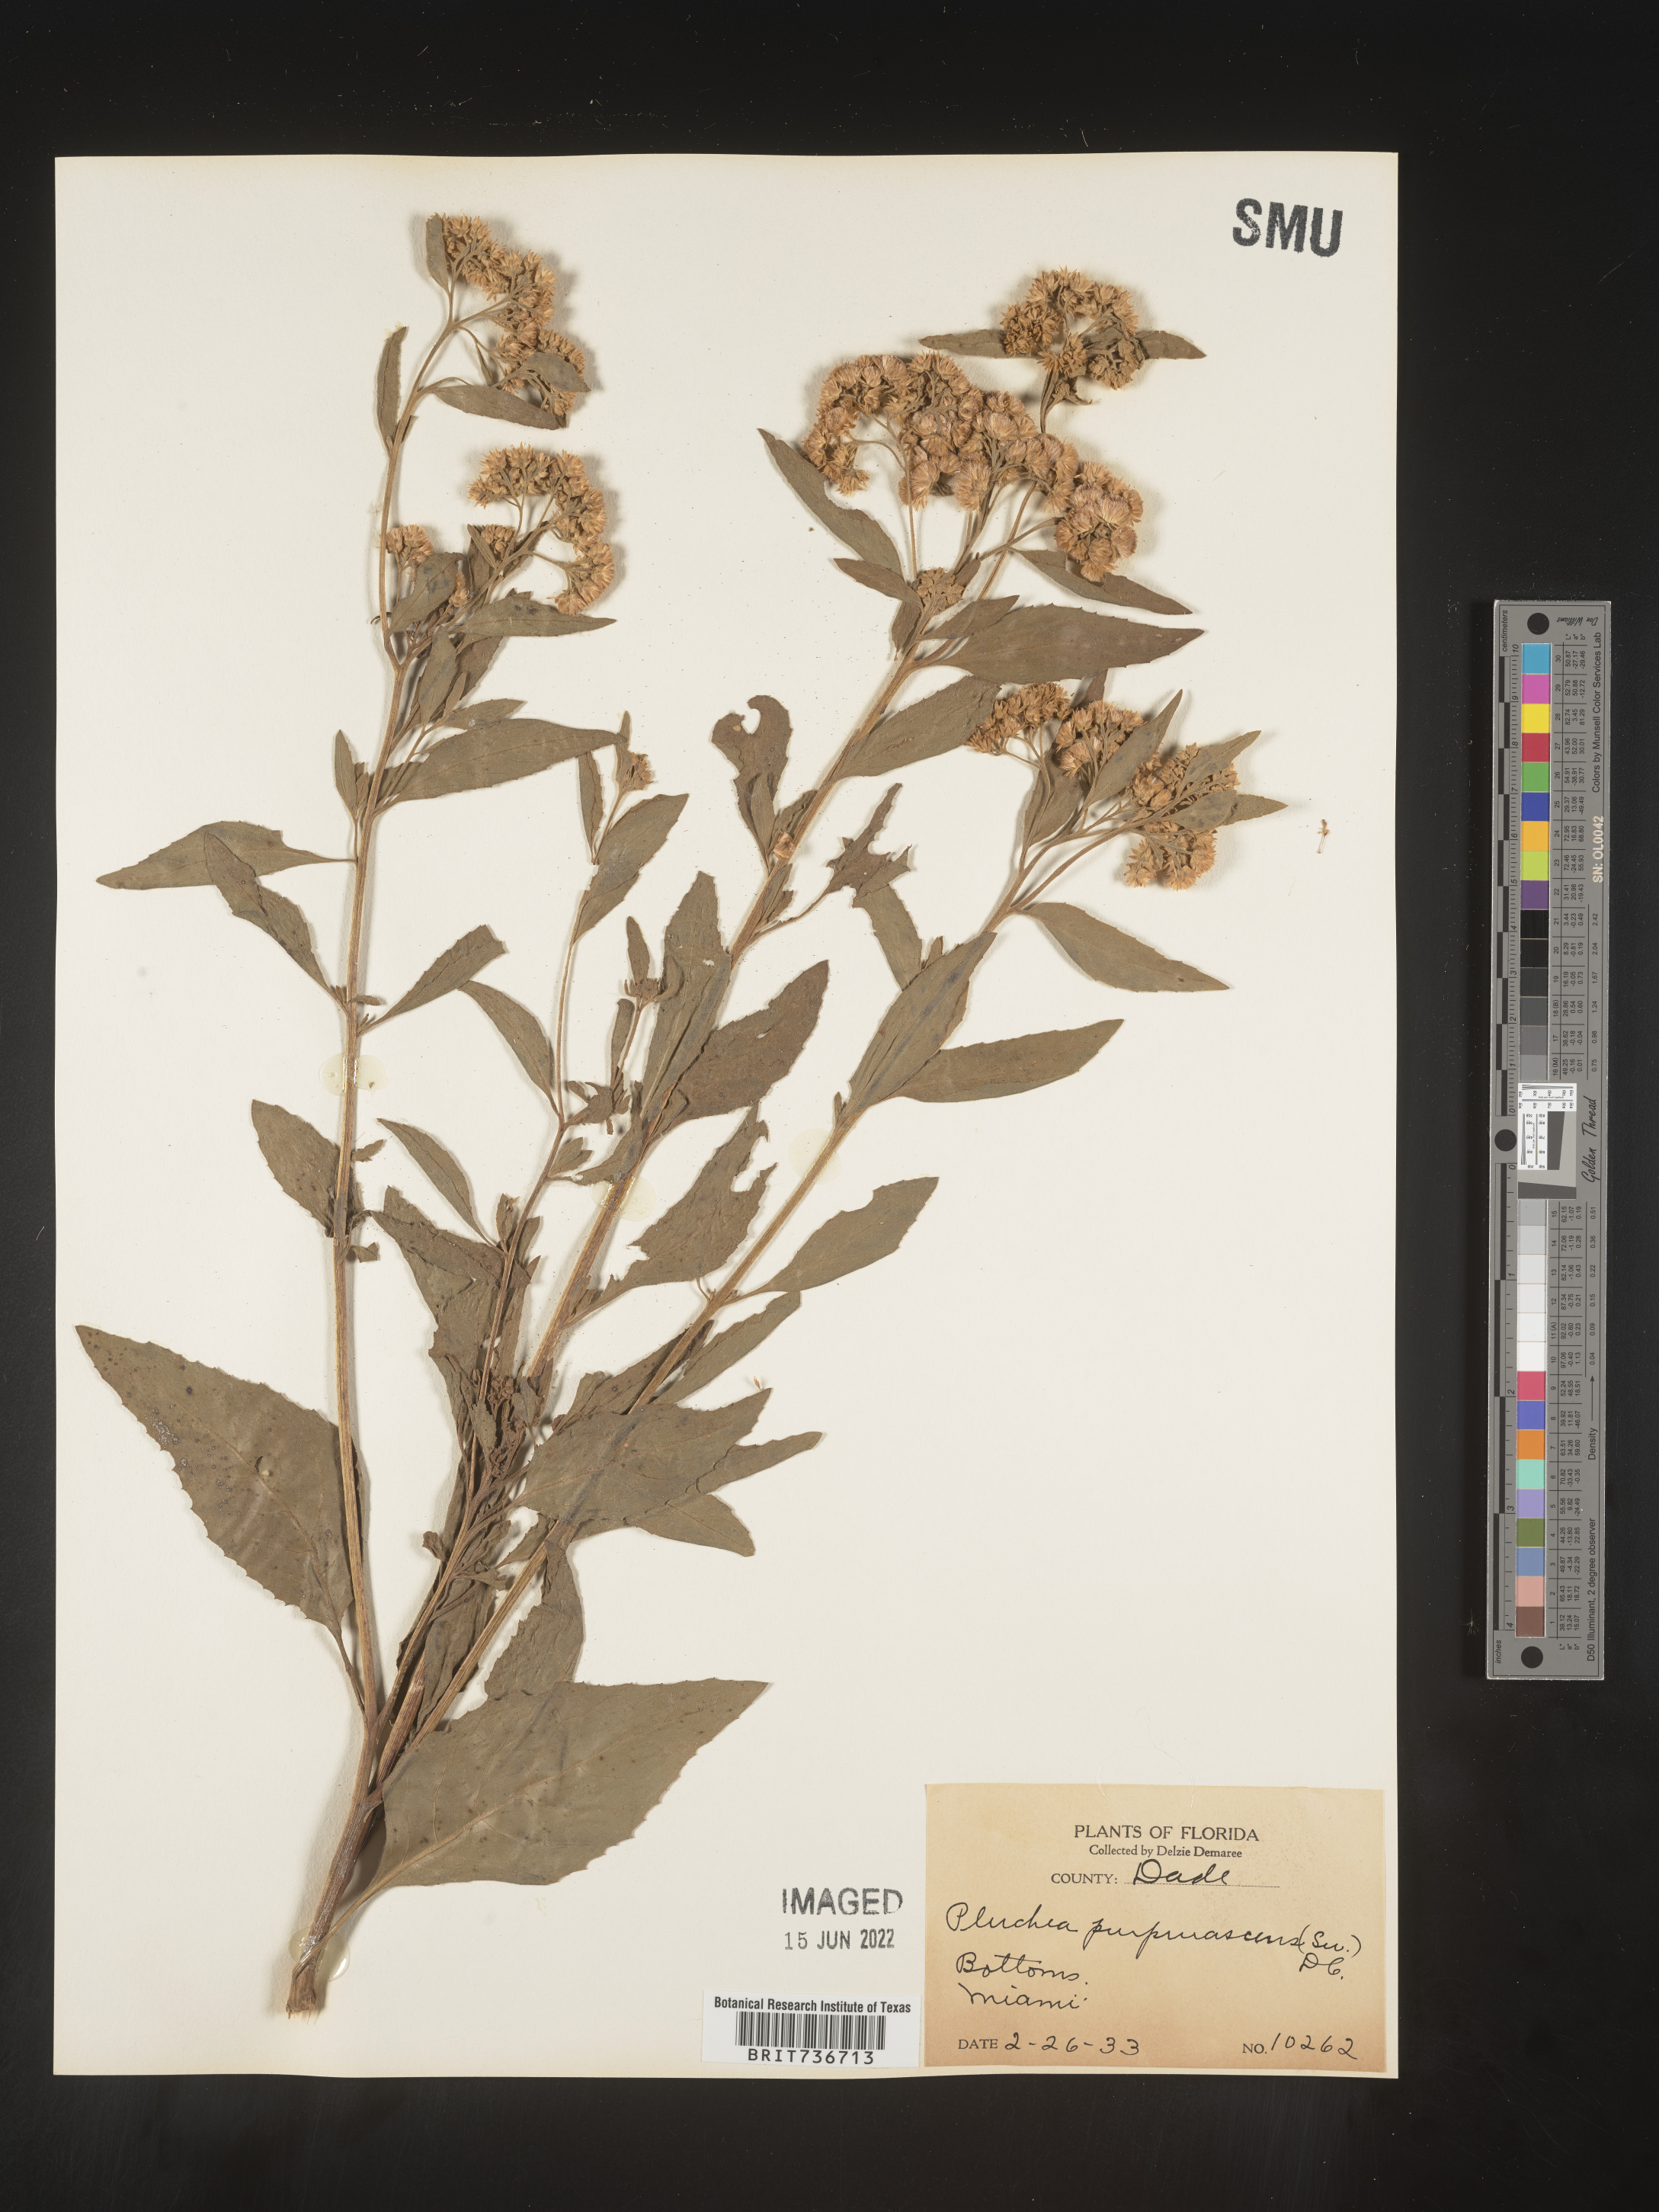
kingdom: Plantae
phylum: Tracheophyta
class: Magnoliopsida
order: Asterales
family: Asteraceae
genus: Pluchea
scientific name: Pluchea odorata
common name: Saltmarsh fleabane
